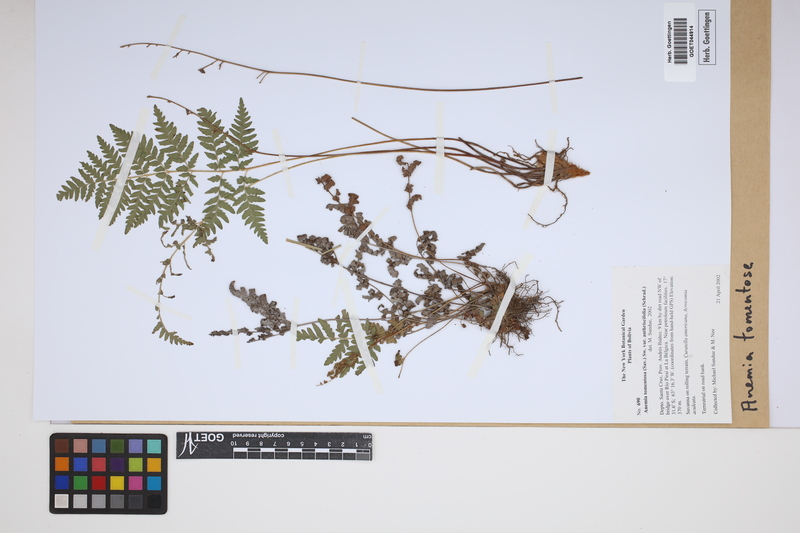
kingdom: Plantae
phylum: Tracheophyta
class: Polypodiopsida
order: Schizaeales
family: Anemiaceae
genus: Anemia
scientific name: Anemia tomentosa
